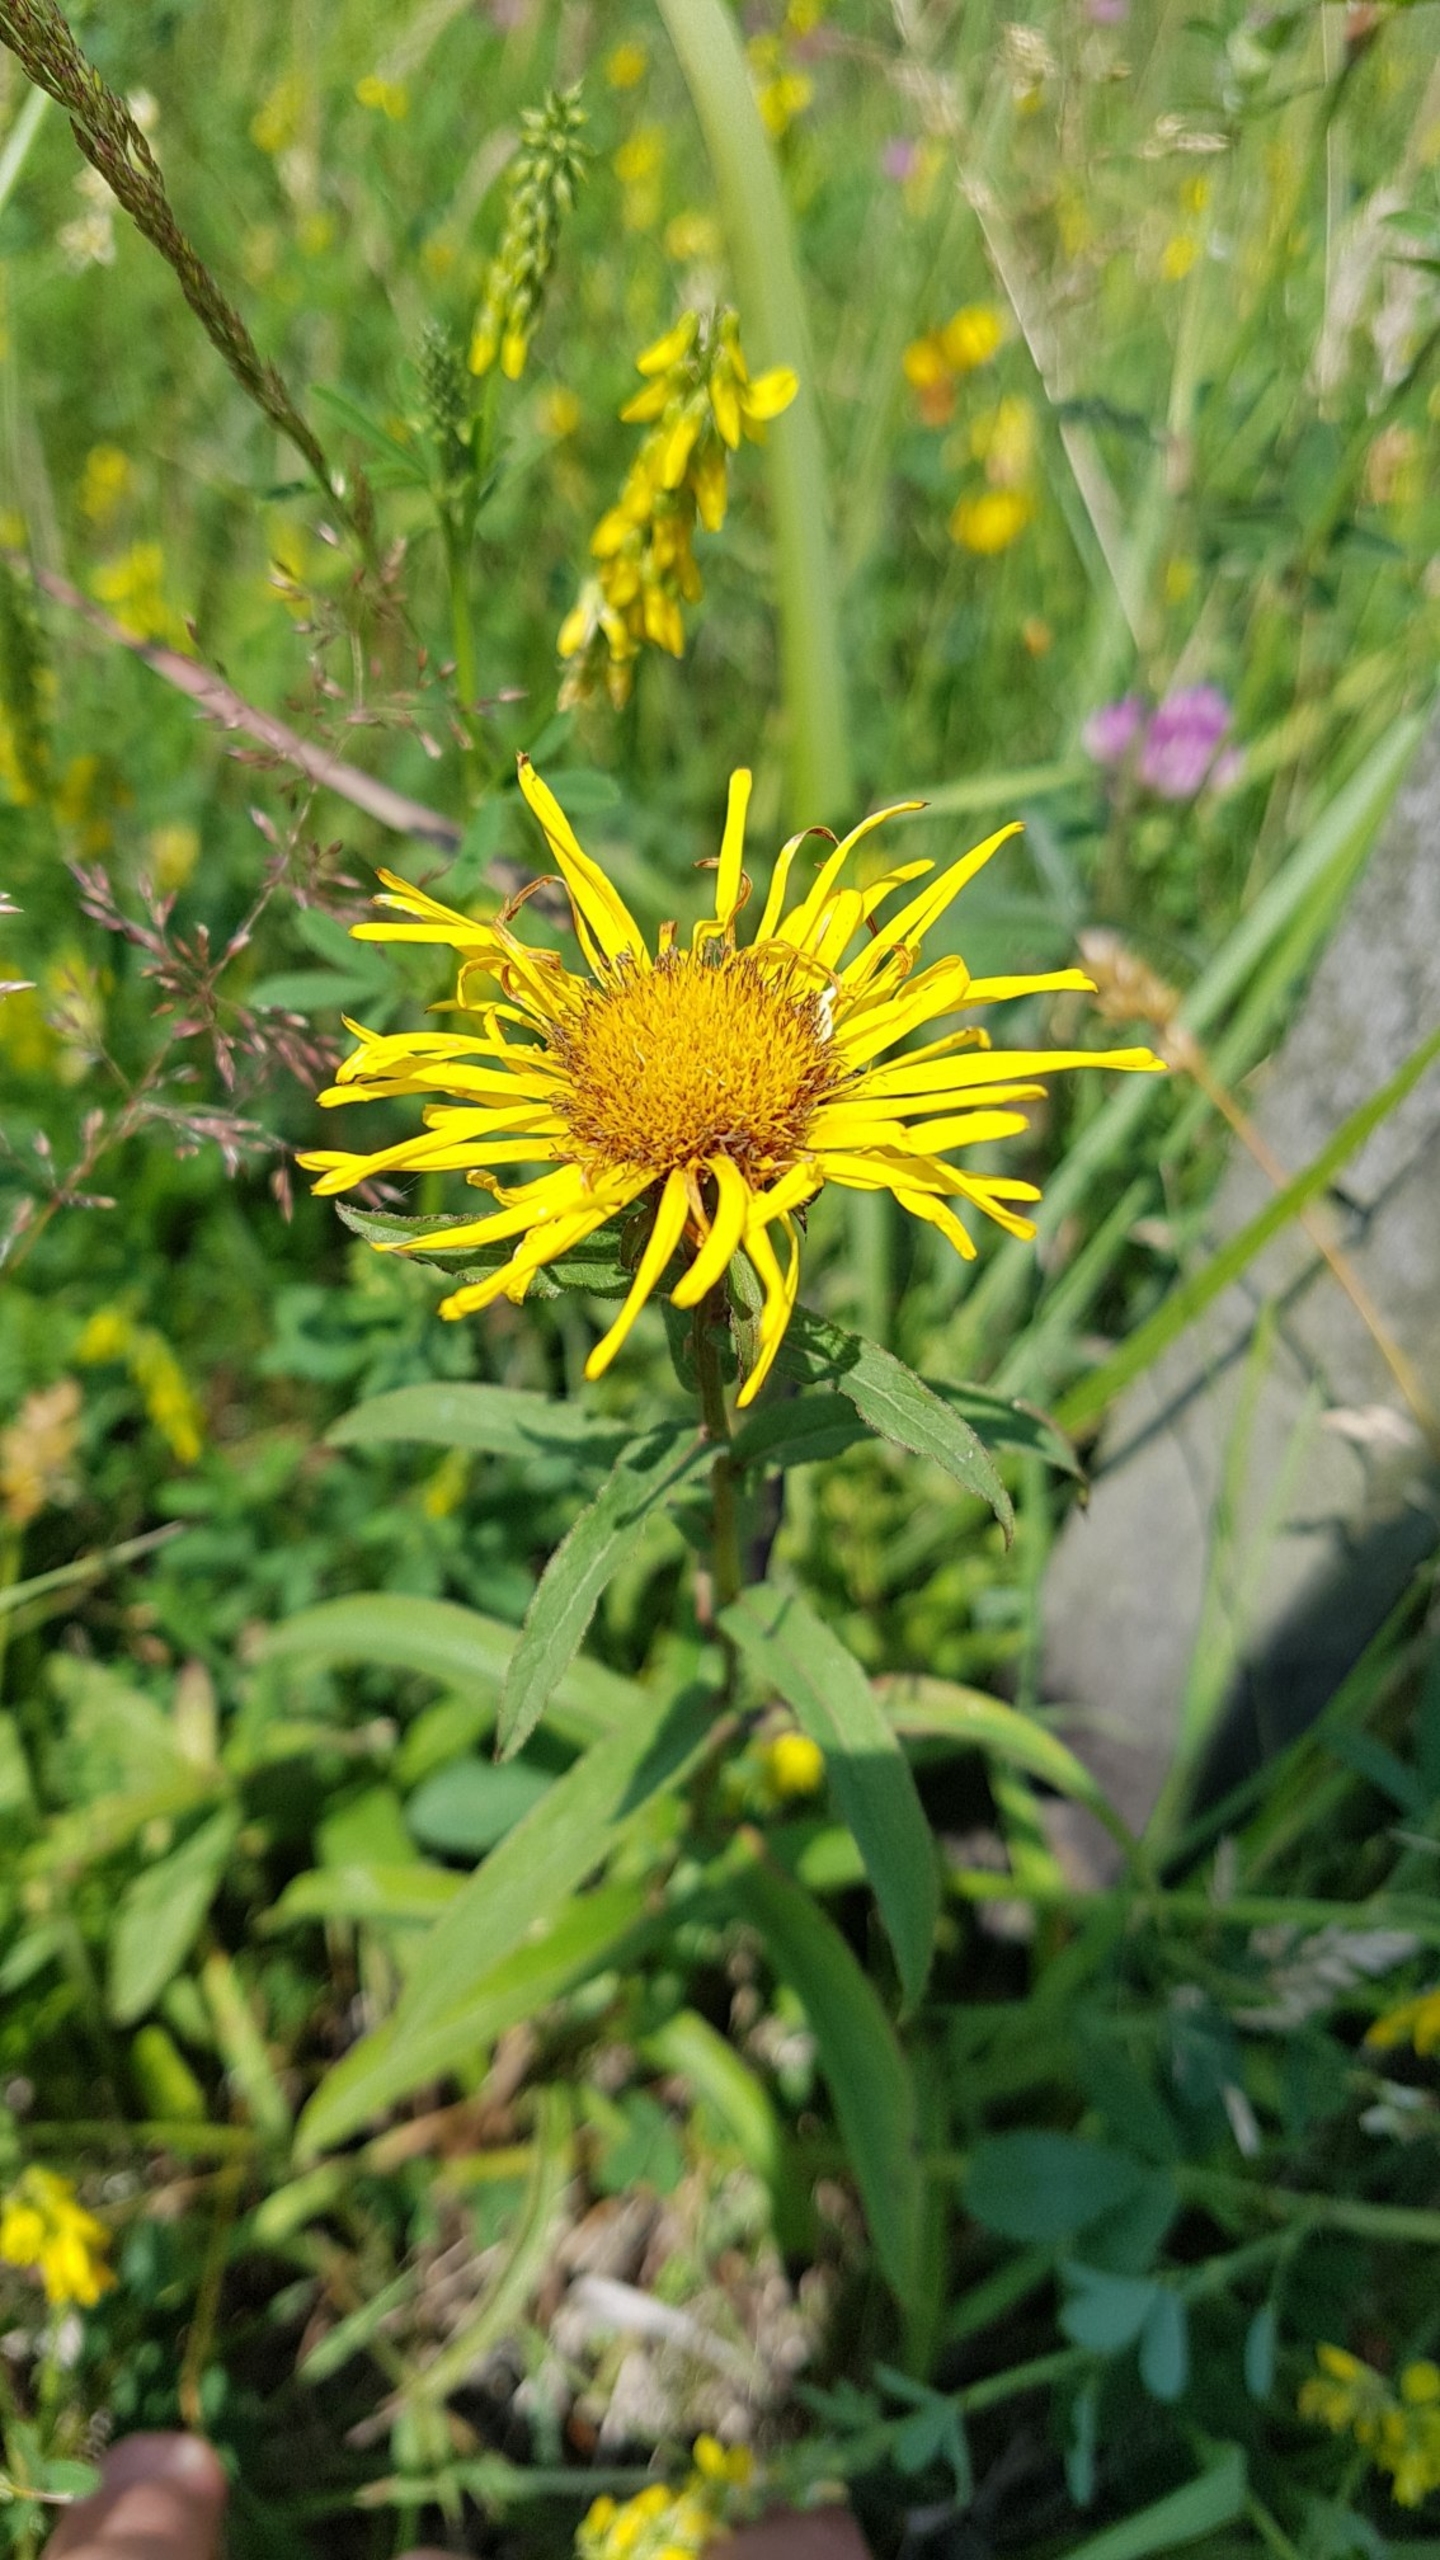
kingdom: Plantae
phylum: Tracheophyta
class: Magnoliopsida
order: Asterales
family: Asteraceae
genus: Pentanema
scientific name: Pentanema salicinum
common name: Pile-alant
